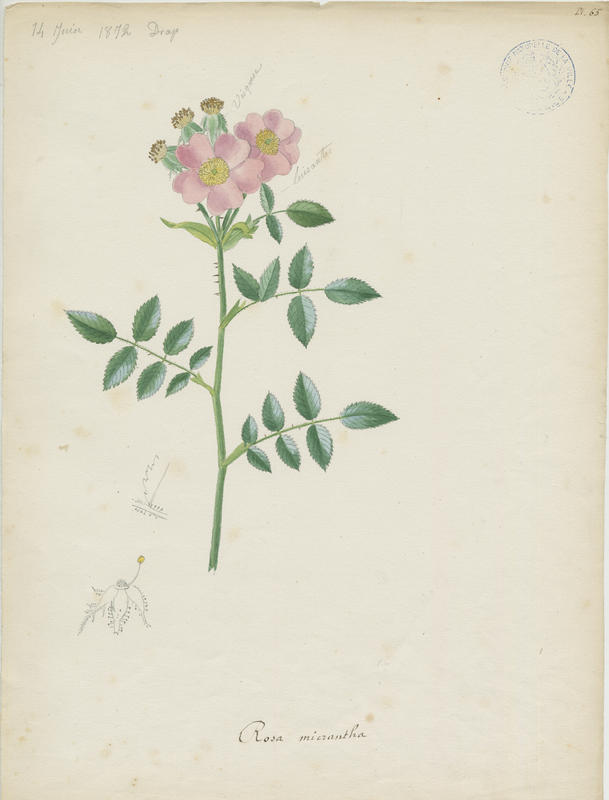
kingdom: Plantae
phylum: Tracheophyta
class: Magnoliopsida
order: Rosales
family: Rosaceae
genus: Rosa
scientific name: Rosa micrantha
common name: Small-flowered sweet-briar
